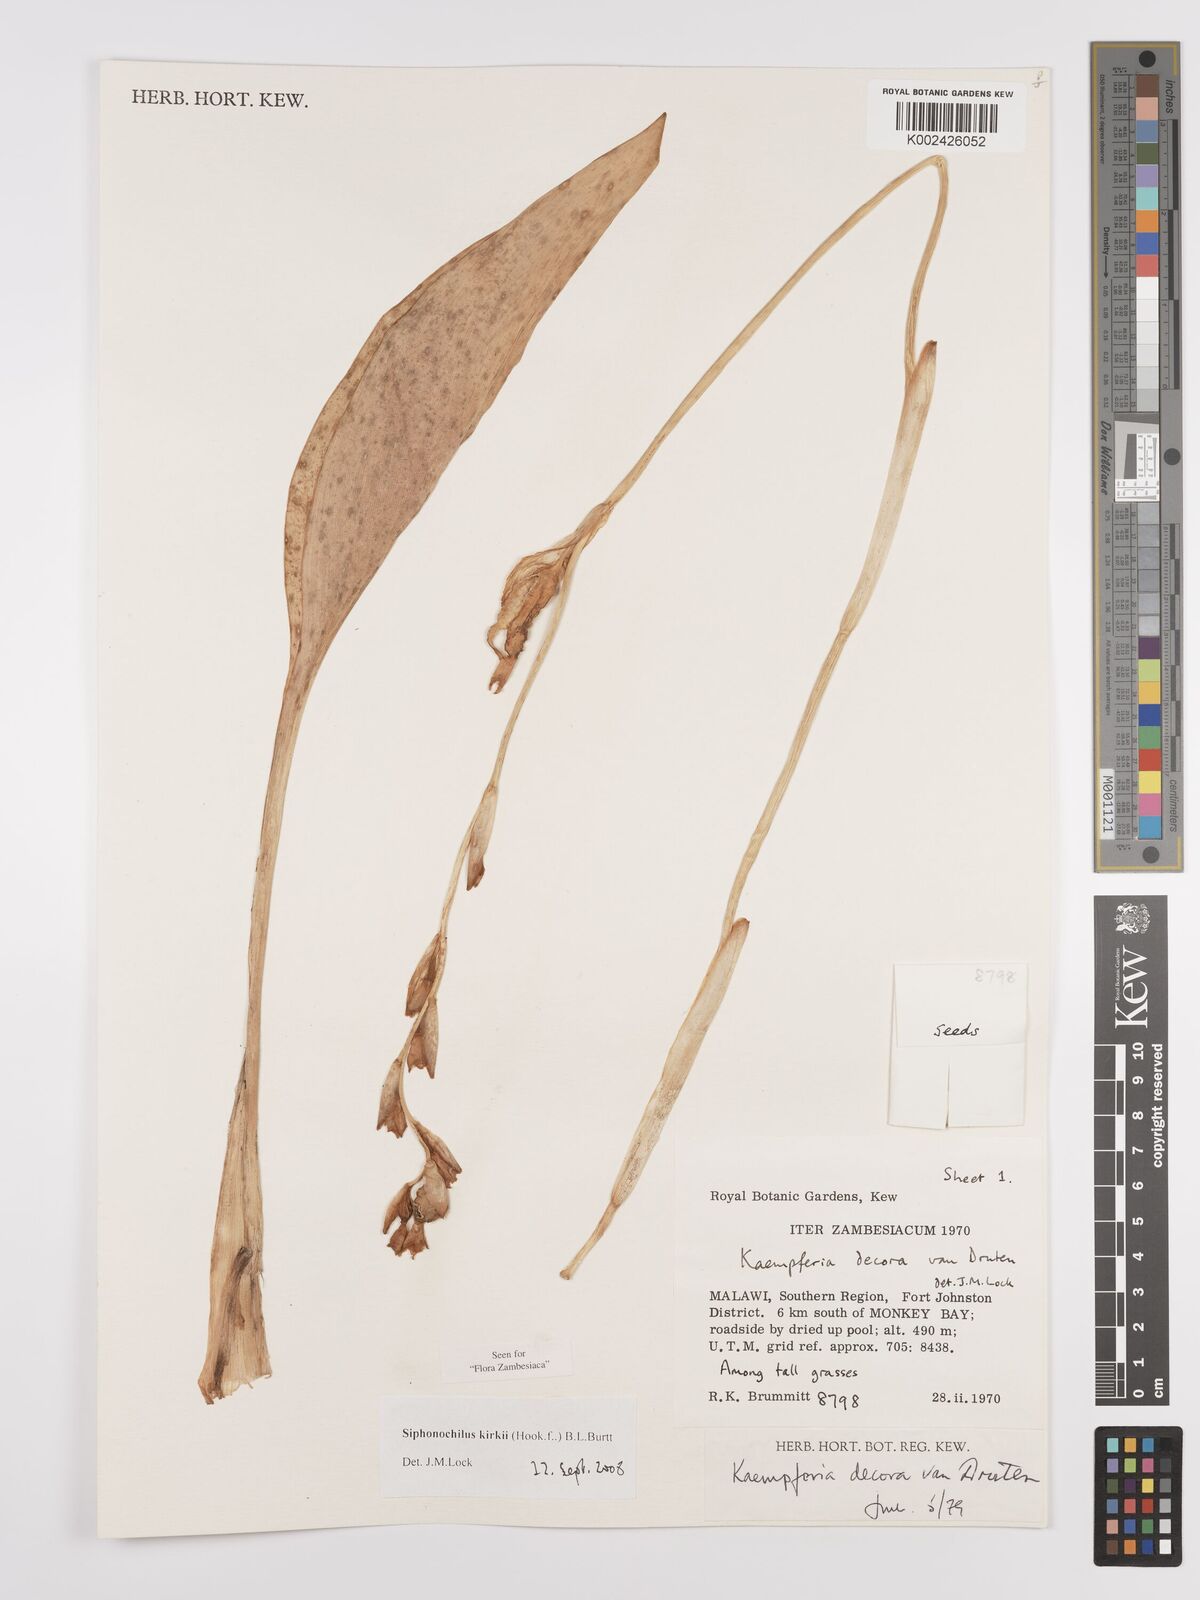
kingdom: Plantae
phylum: Tracheophyta
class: Liliopsida
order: Zingiberales
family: Zingiberaceae
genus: Siphonochilus
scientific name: Siphonochilus kirkii
